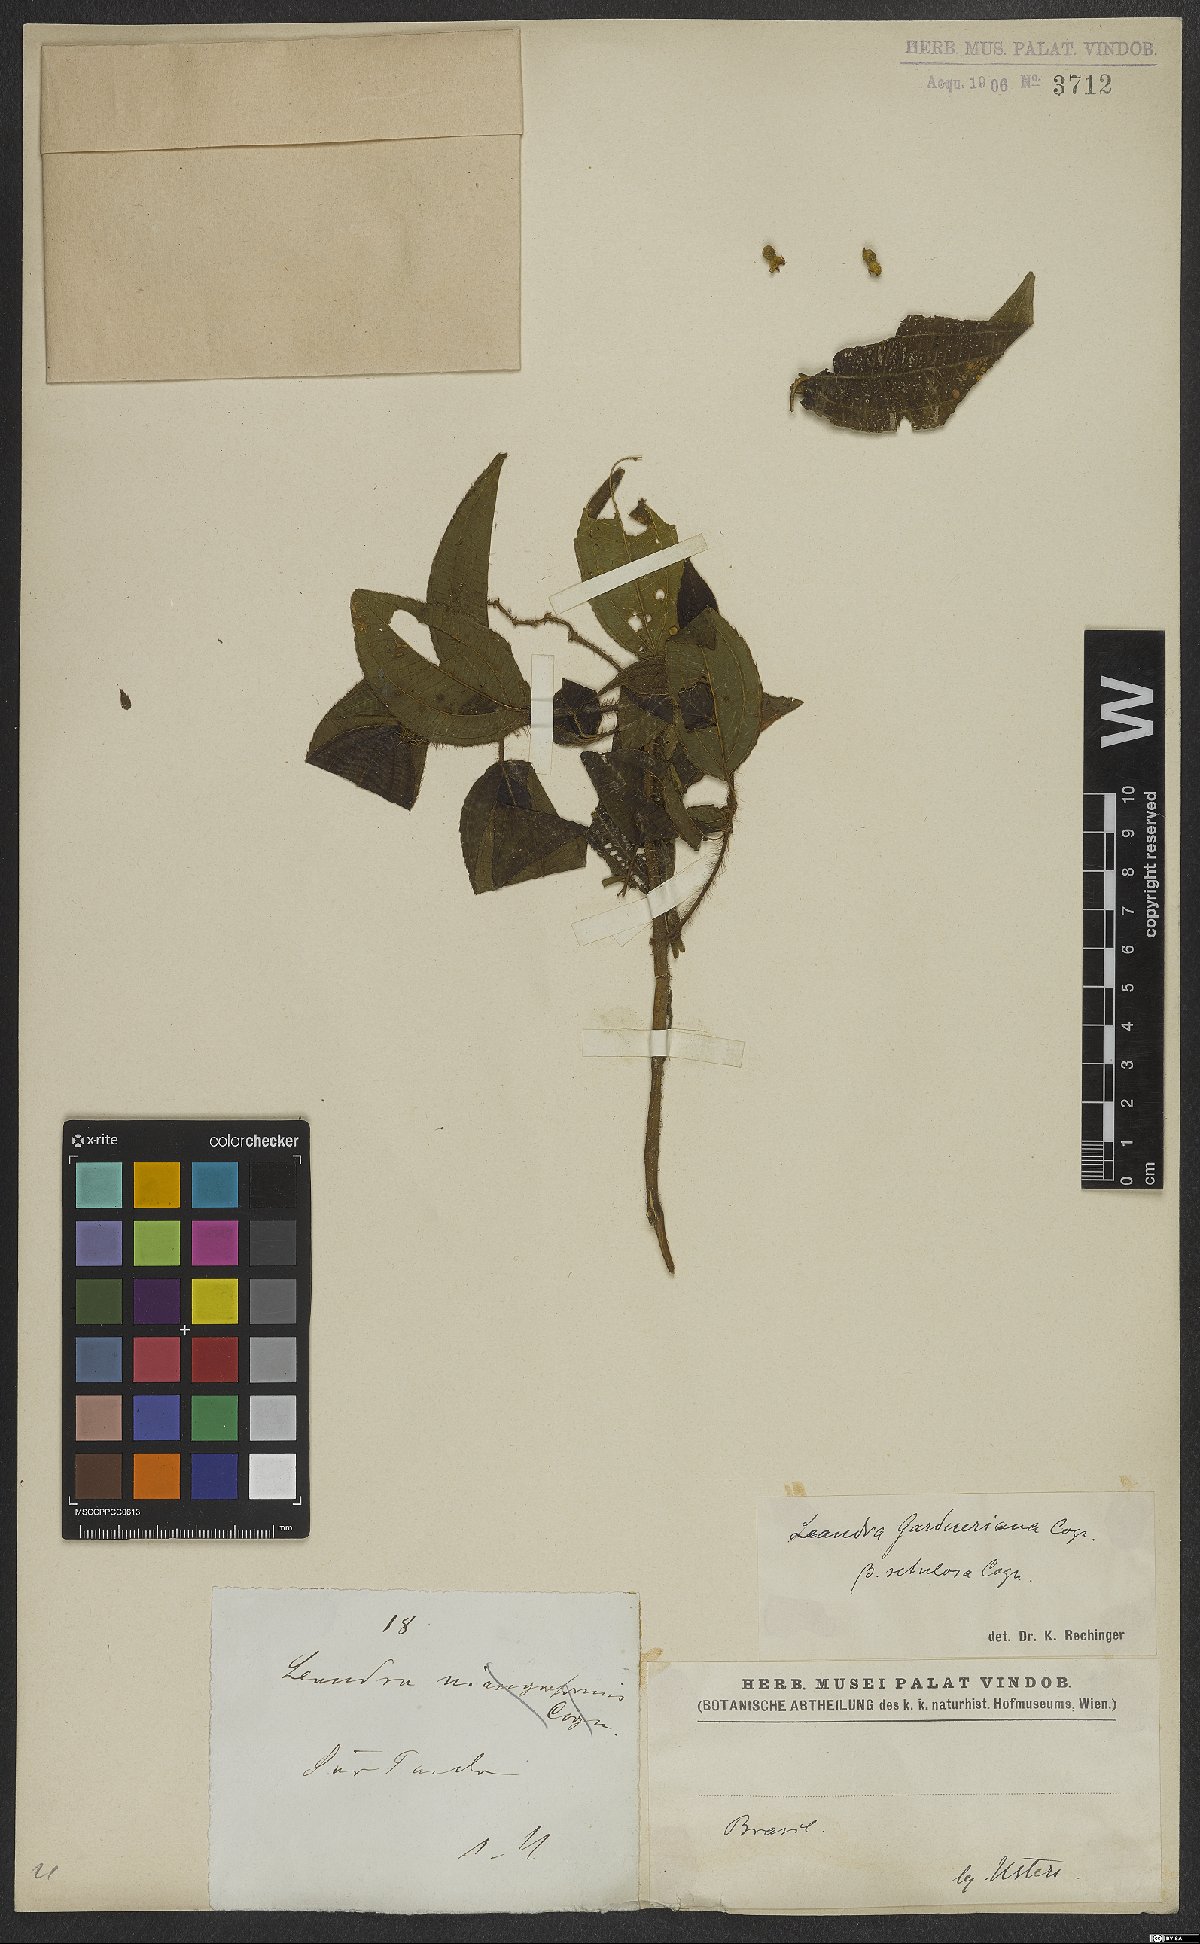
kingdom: Plantae
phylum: Tracheophyta
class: Magnoliopsida
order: Myrtales
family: Melastomataceae
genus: Miconia
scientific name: Miconia xantholasia
